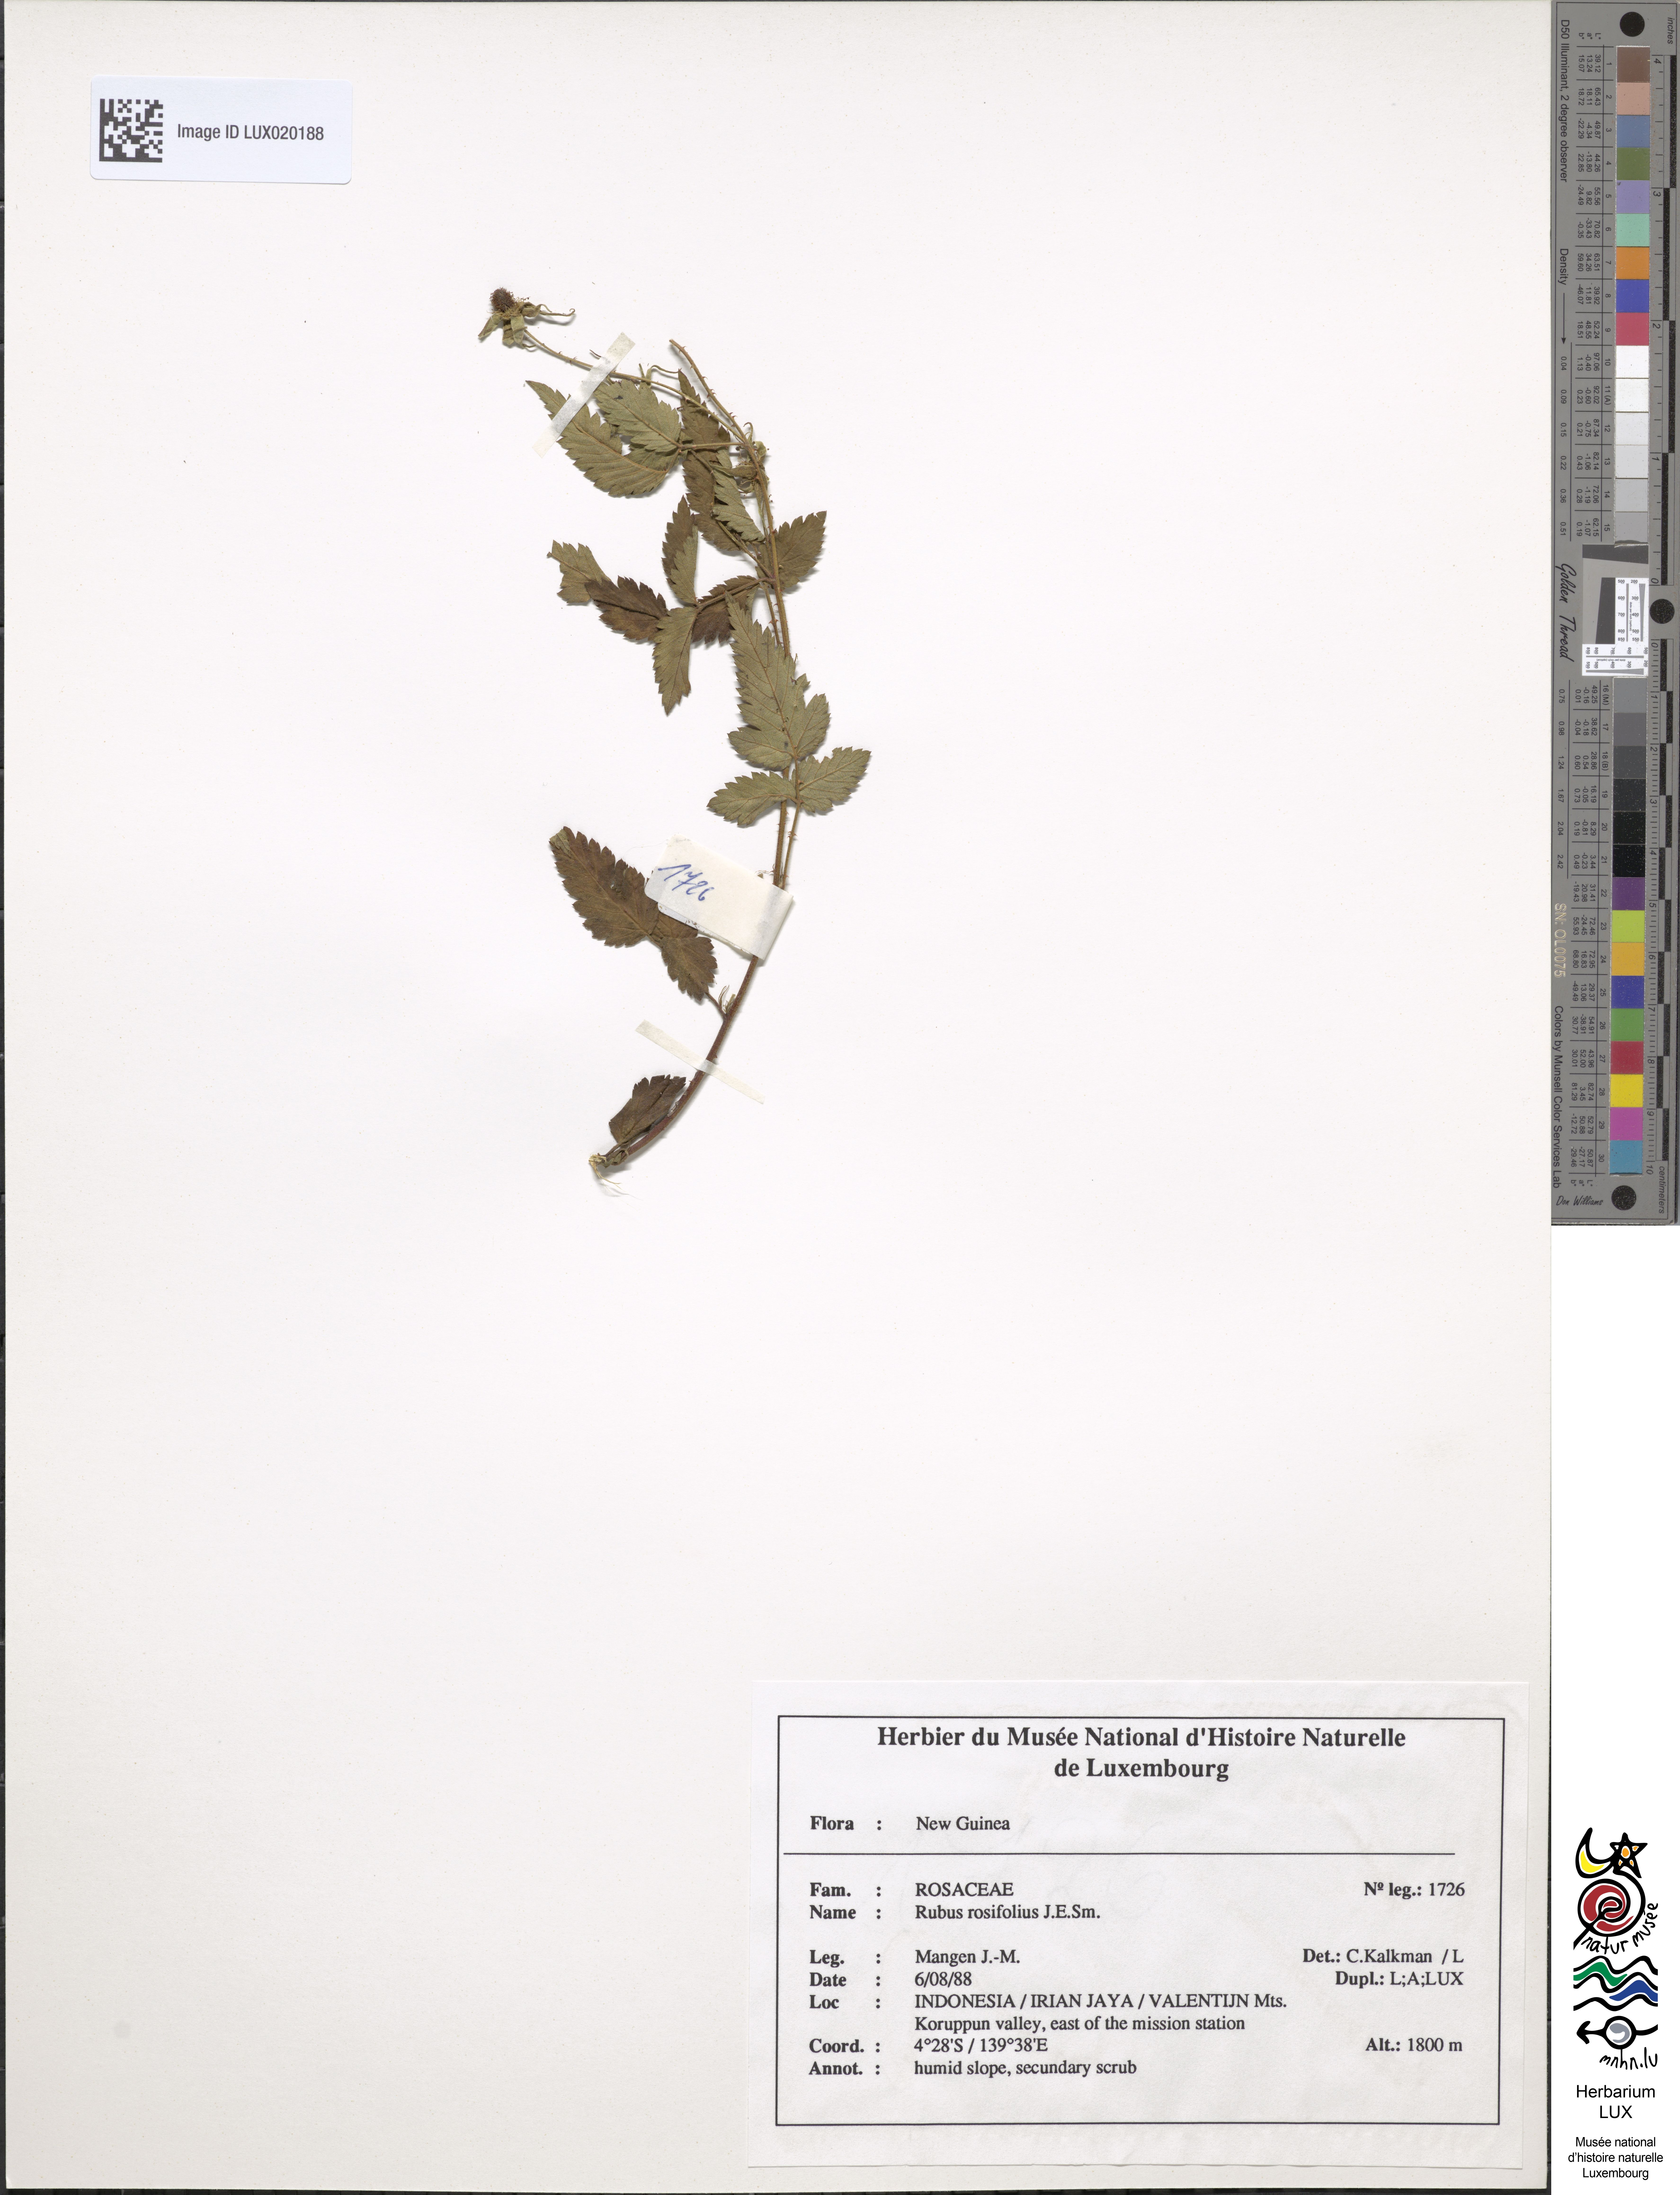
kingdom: Plantae
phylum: Tracheophyta
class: Magnoliopsida
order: Rosales
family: Rosaceae
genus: Rubus
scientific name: Rubus rosifolius
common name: Roseleaf raspberry
